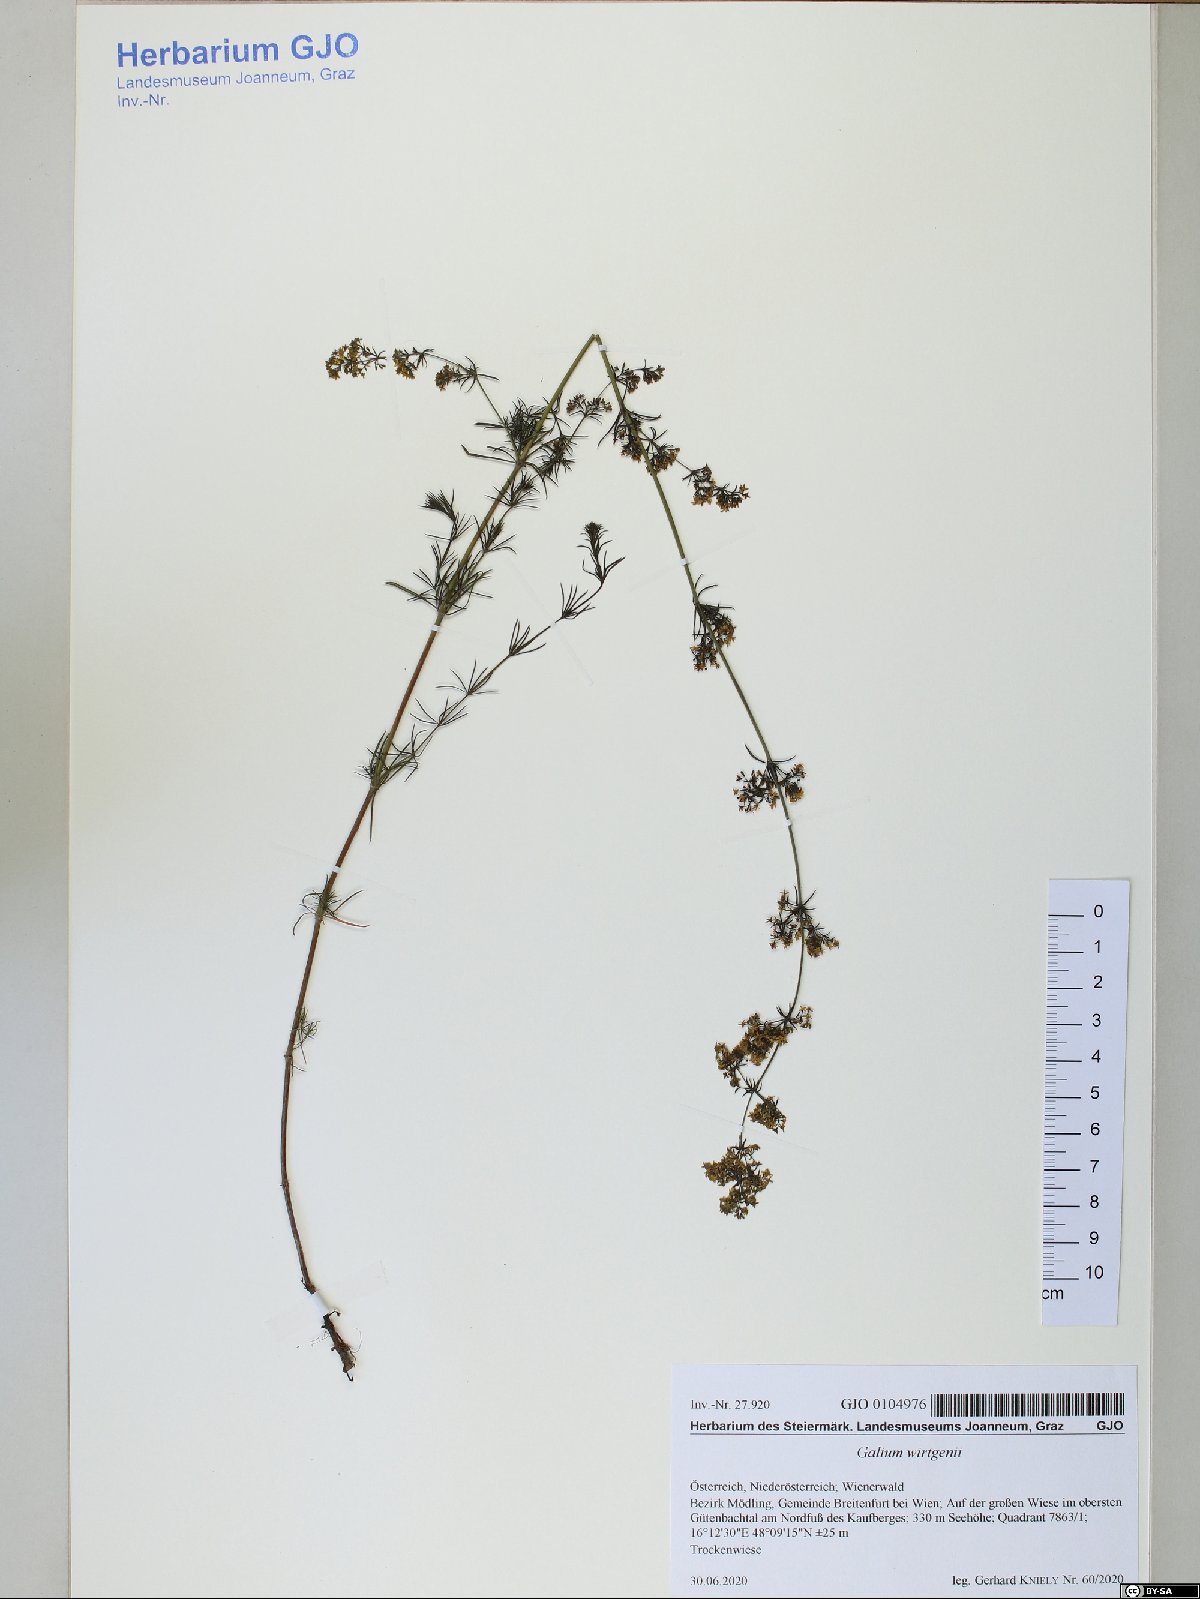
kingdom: Plantae
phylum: Tracheophyta
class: Magnoliopsida
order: Gentianales
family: Rubiaceae
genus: Galium
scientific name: Galium verum
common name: Lady's bedstraw
